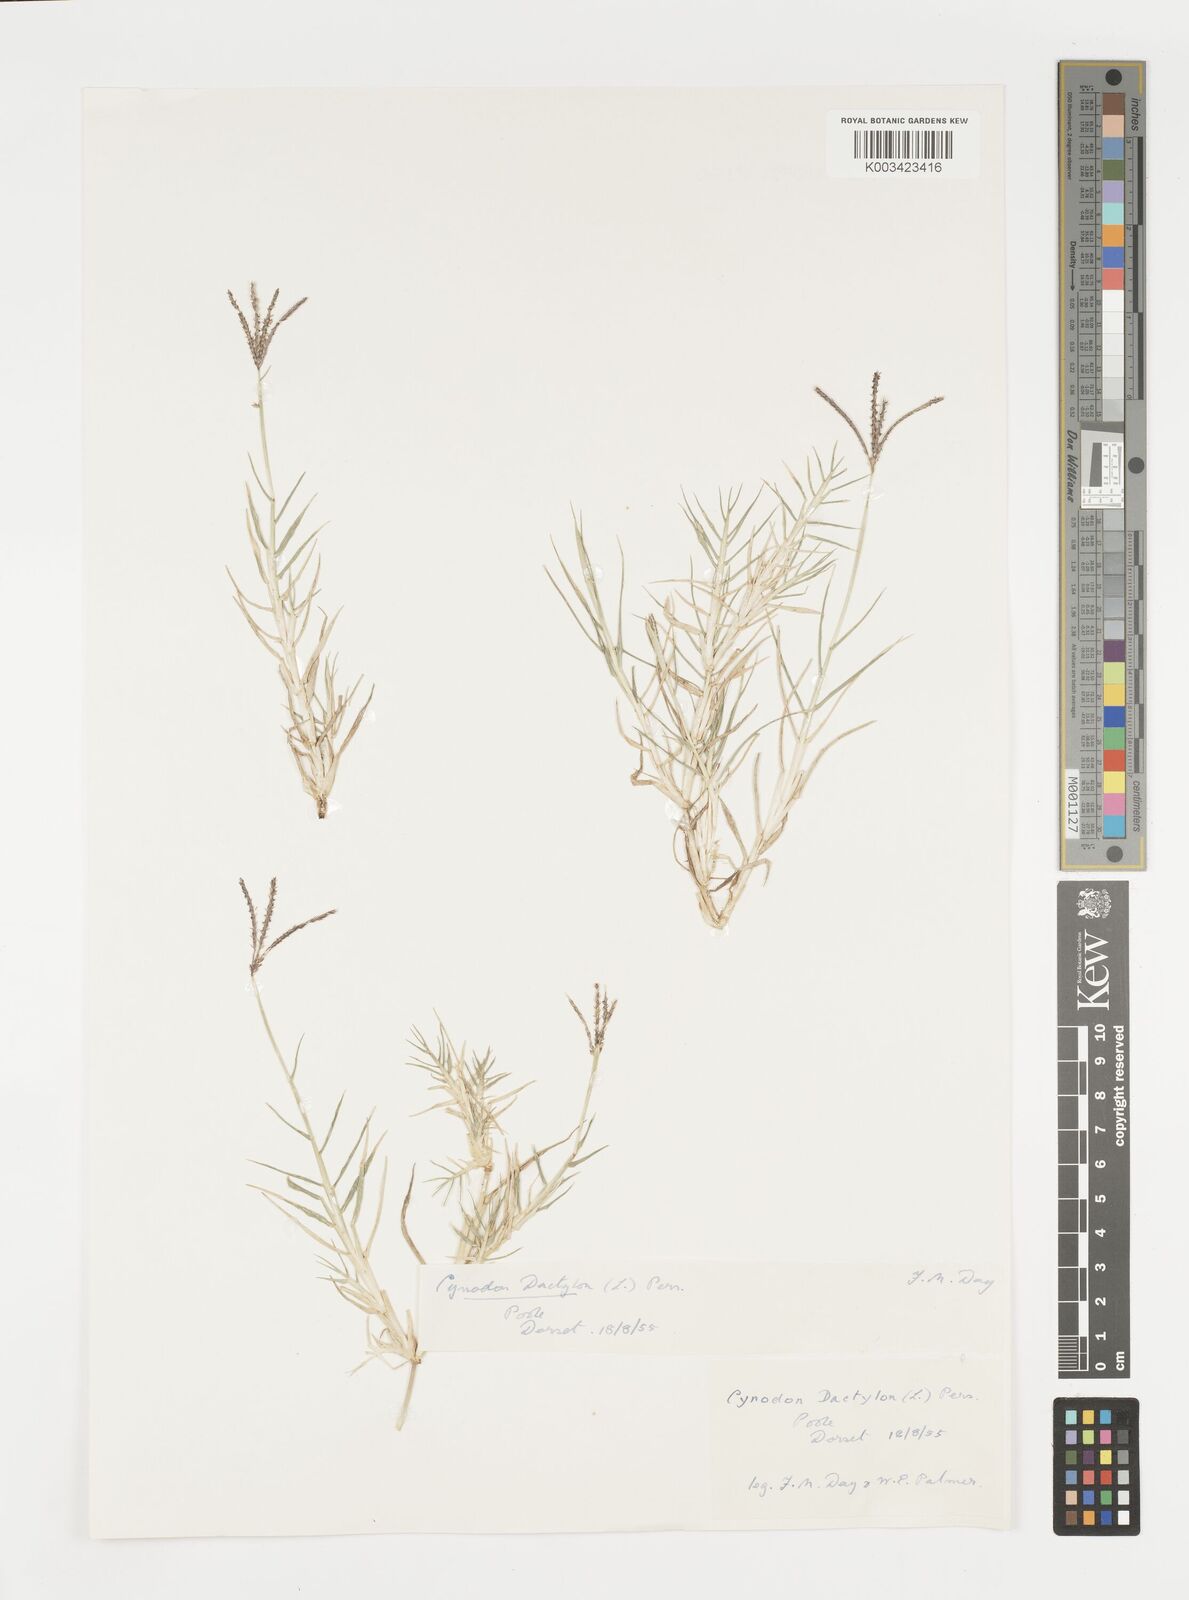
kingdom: Plantae
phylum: Tracheophyta
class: Liliopsida
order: Poales
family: Poaceae
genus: Cynodon
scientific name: Cynodon dactylon
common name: Bermuda grass
